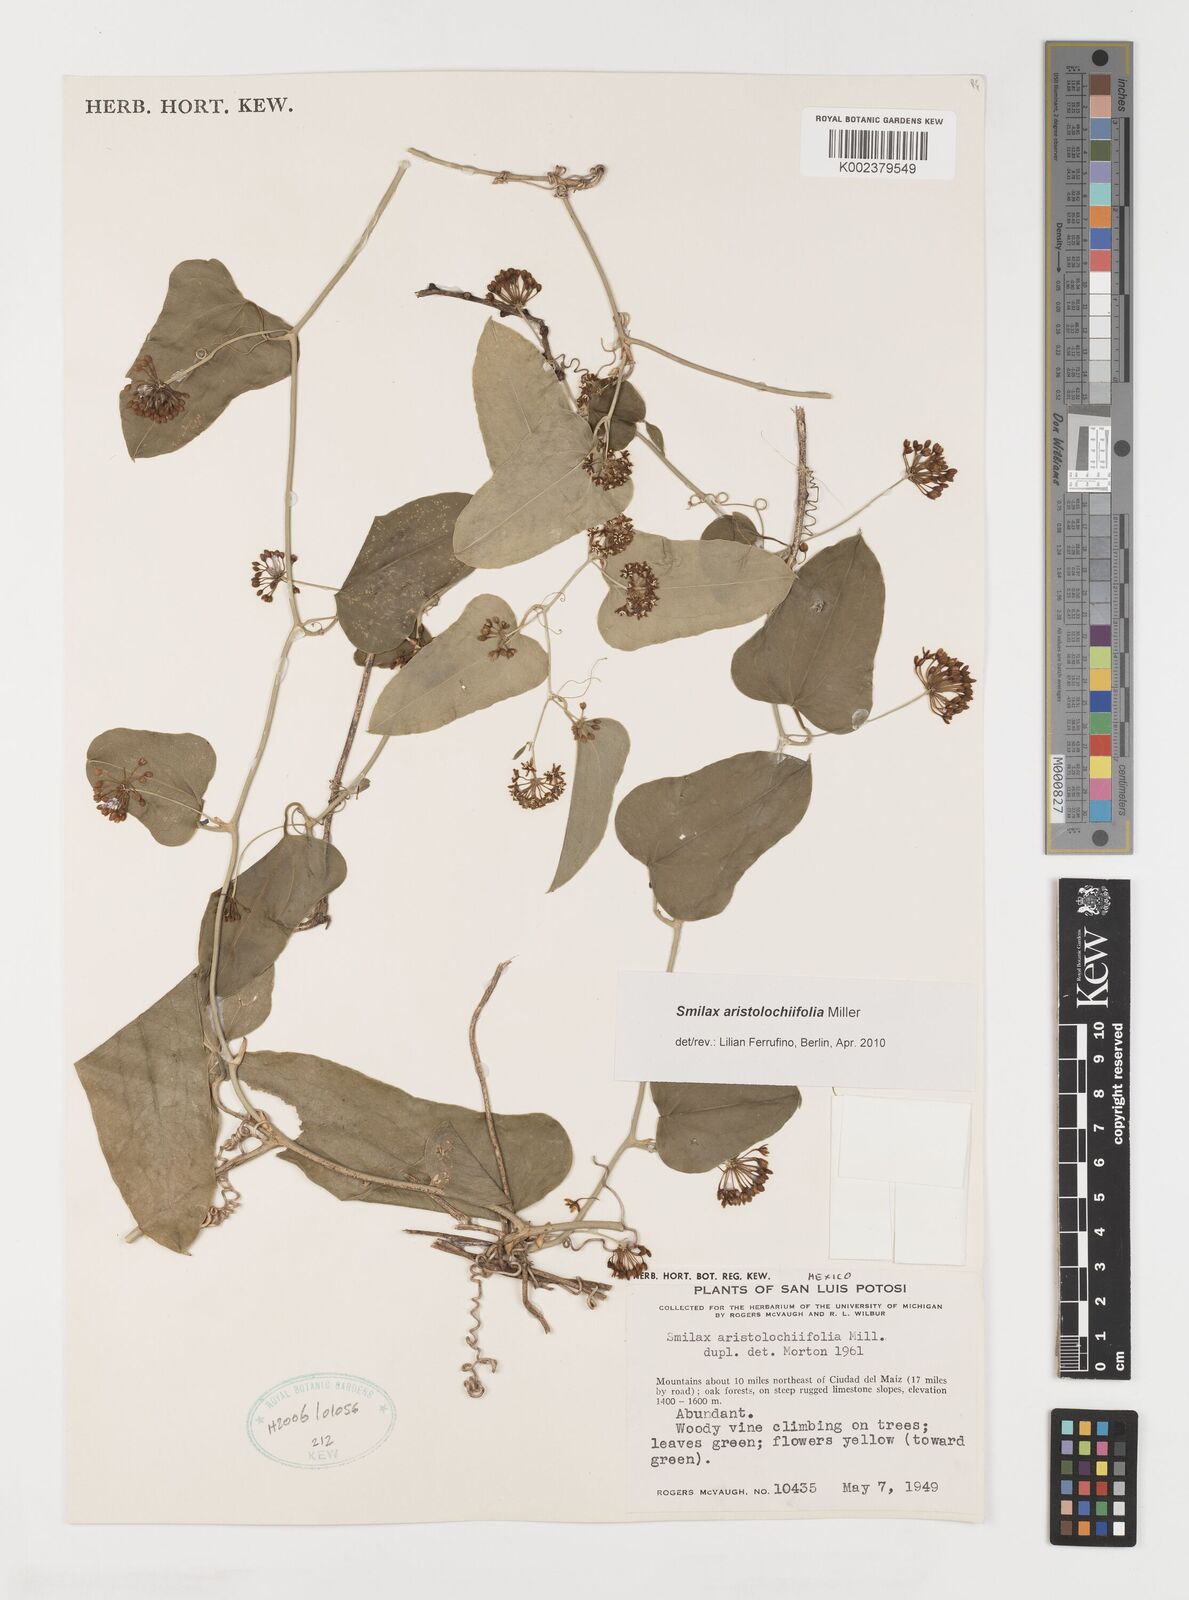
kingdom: Plantae
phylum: Tracheophyta
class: Liliopsida
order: Liliales
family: Smilacaceae
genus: Smilax
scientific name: Smilax aristolochiifolia
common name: Sarsaparilla
